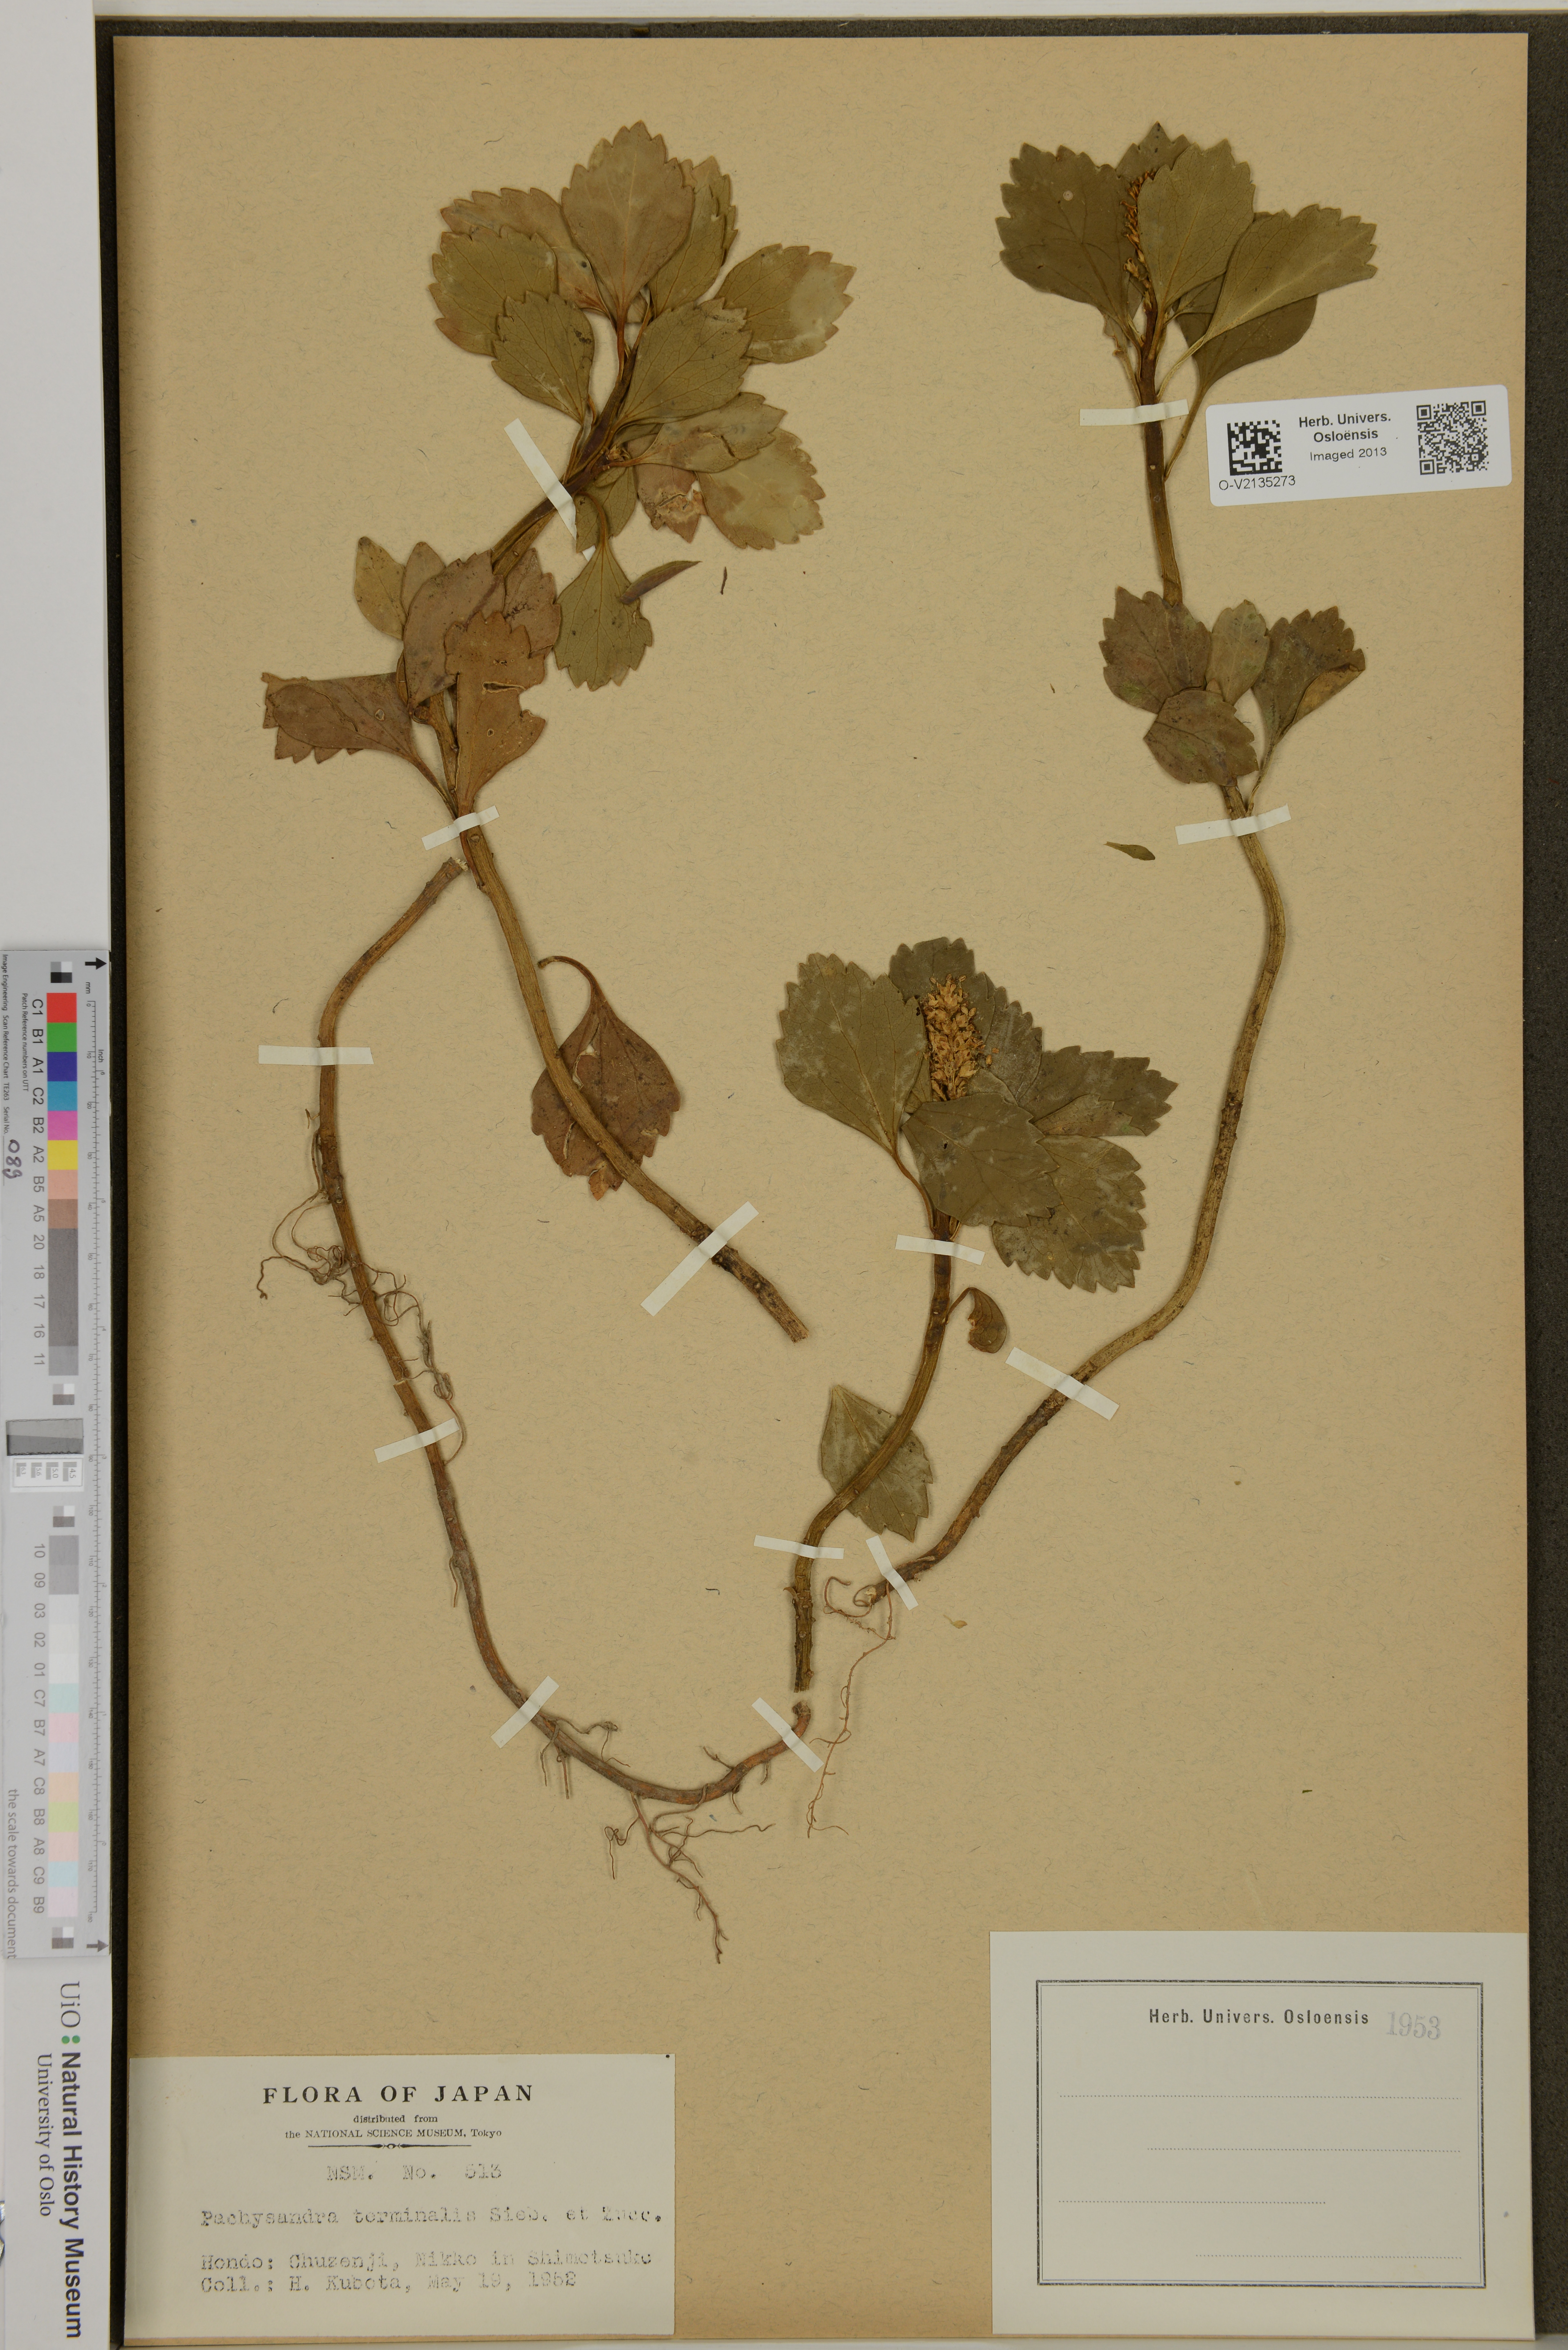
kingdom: Plantae
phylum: Tracheophyta
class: Magnoliopsida
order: Buxales
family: Buxaceae
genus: Pachysandra
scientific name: Pachysandra terminalis
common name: Japanese pachysandra
